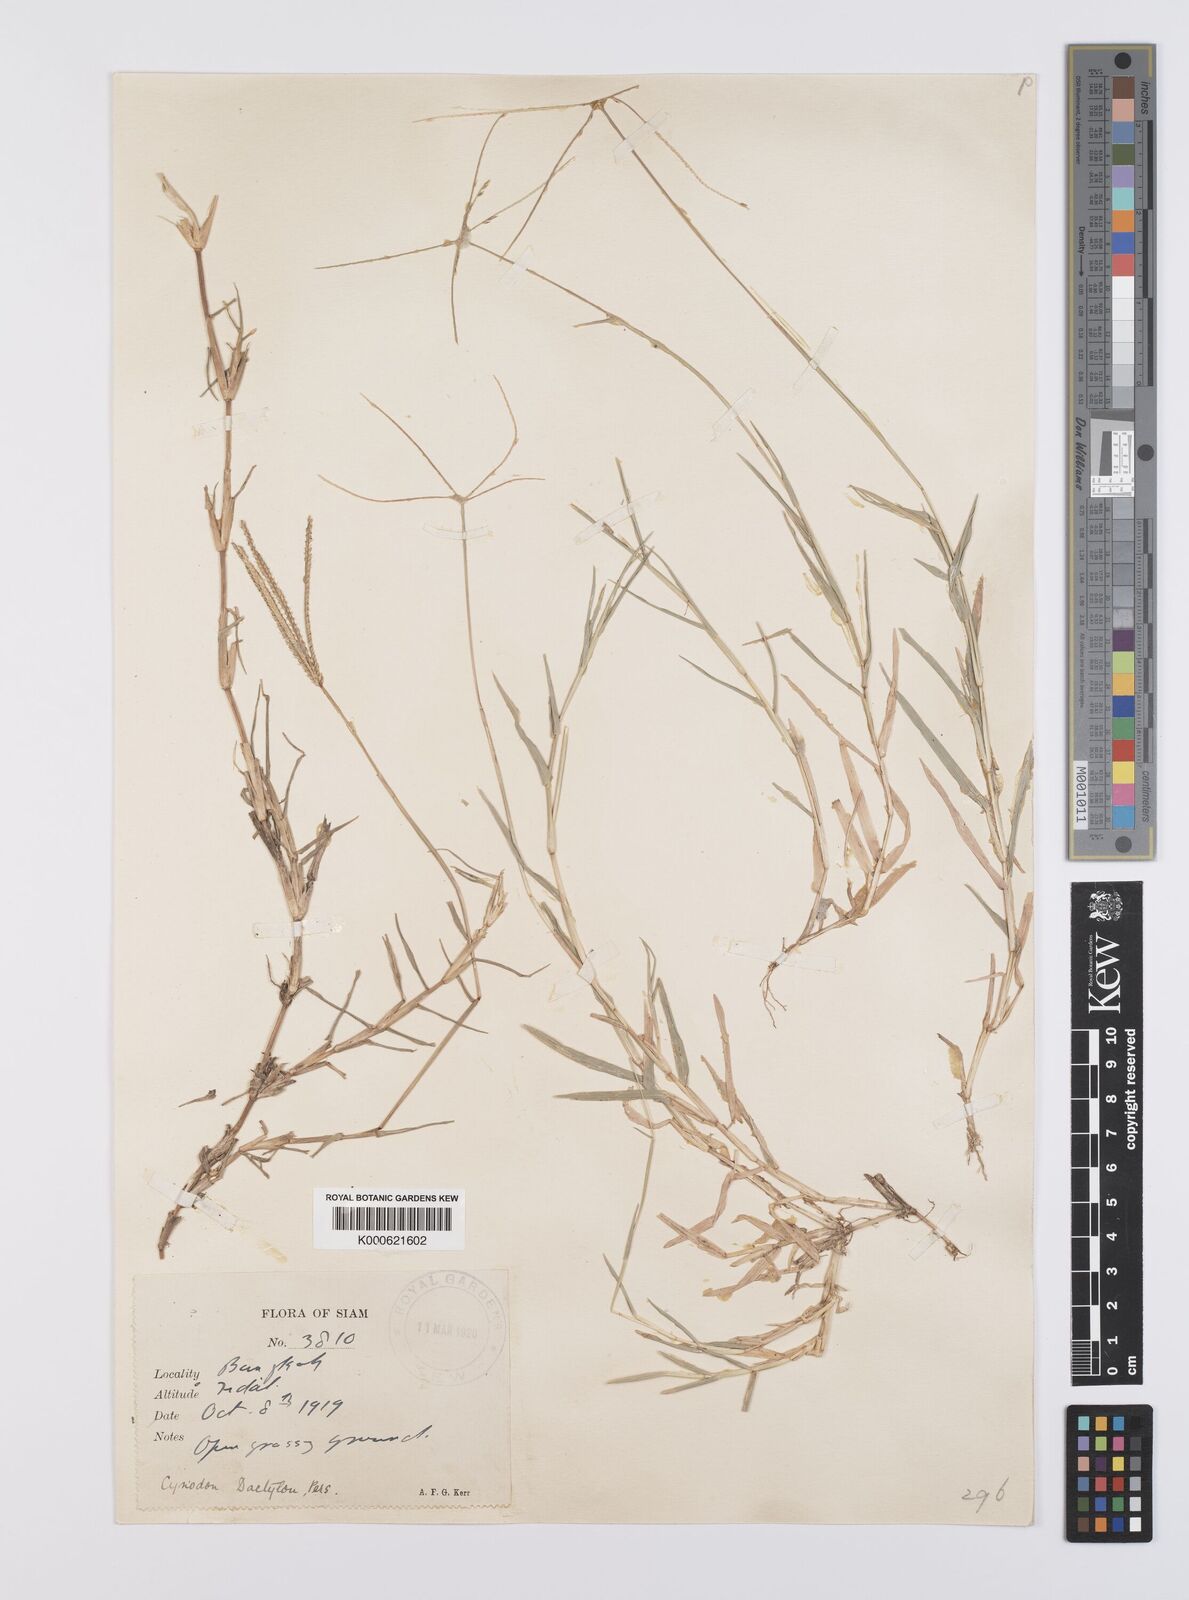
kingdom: Plantae
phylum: Tracheophyta
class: Liliopsida
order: Poales
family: Poaceae
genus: Cynodon
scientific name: Cynodon radiatus
